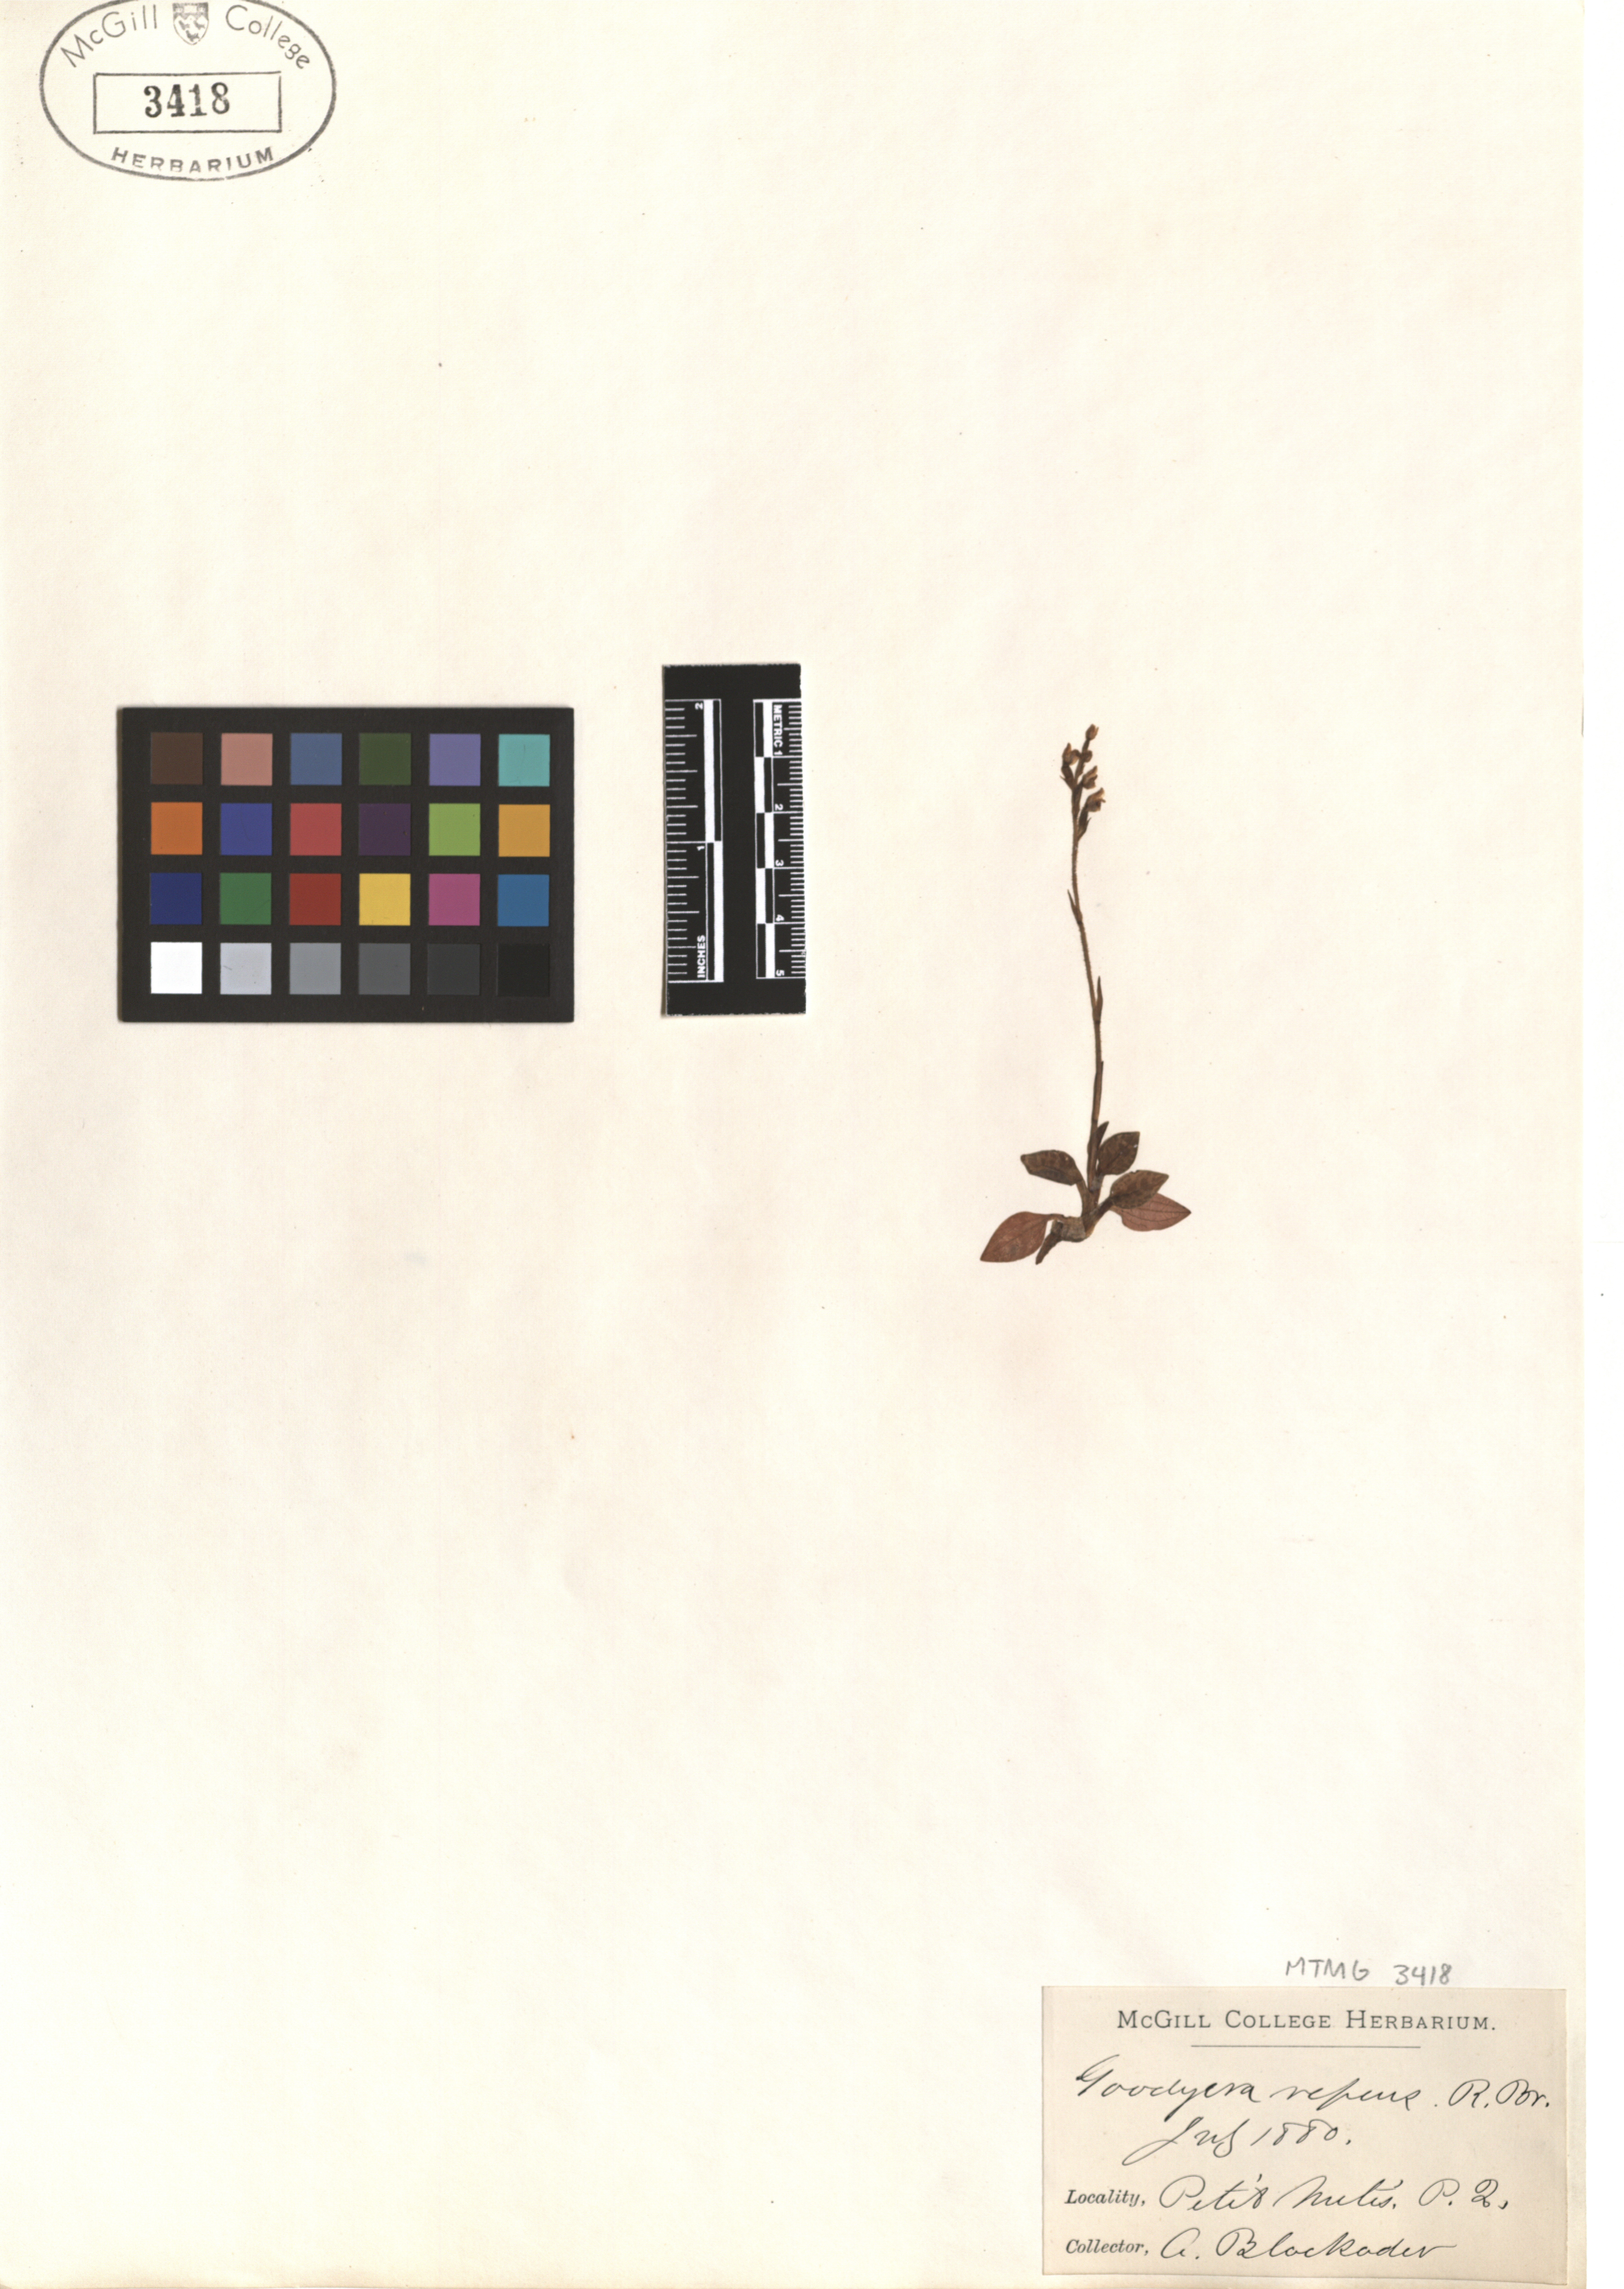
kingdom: Plantae
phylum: Tracheophyta
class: Liliopsida
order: Asparagales
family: Orchidaceae
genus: Goodyera
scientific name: Goodyera repens
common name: Creeping lady's-tresses
